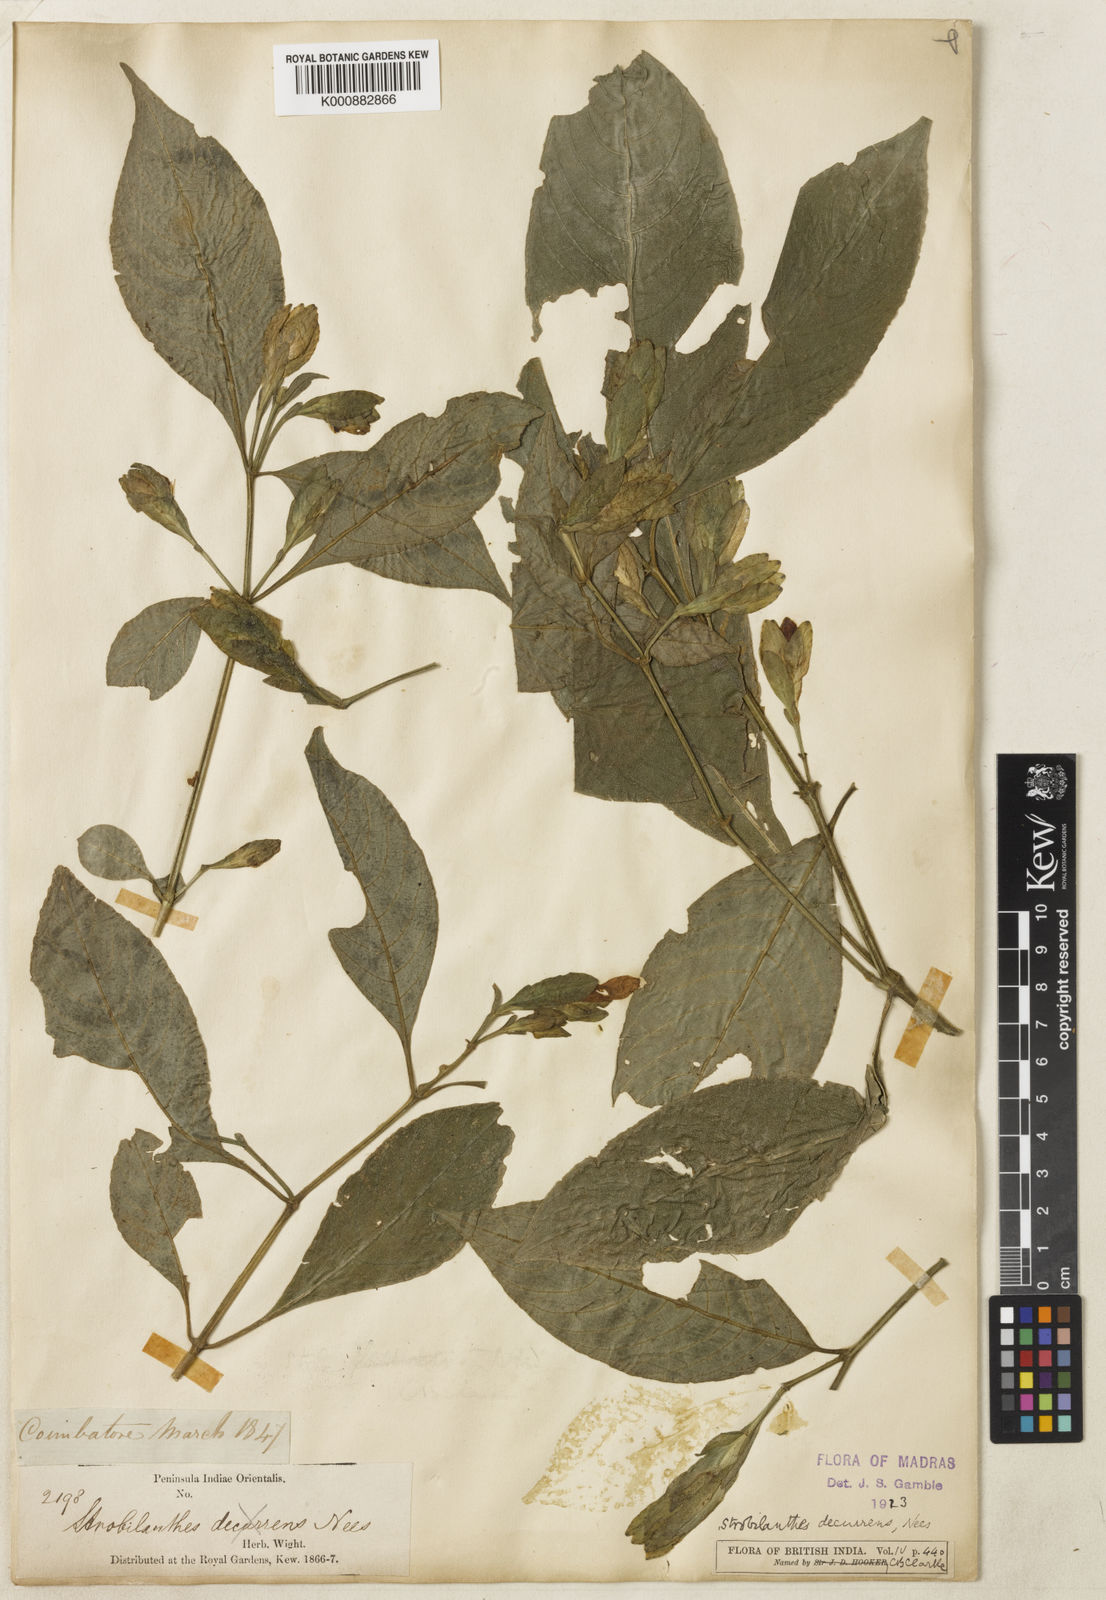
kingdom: Plantae
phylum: Tracheophyta
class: Magnoliopsida
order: Lamiales
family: Acanthaceae
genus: Strobilanthes
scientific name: Strobilanthes decurrens
